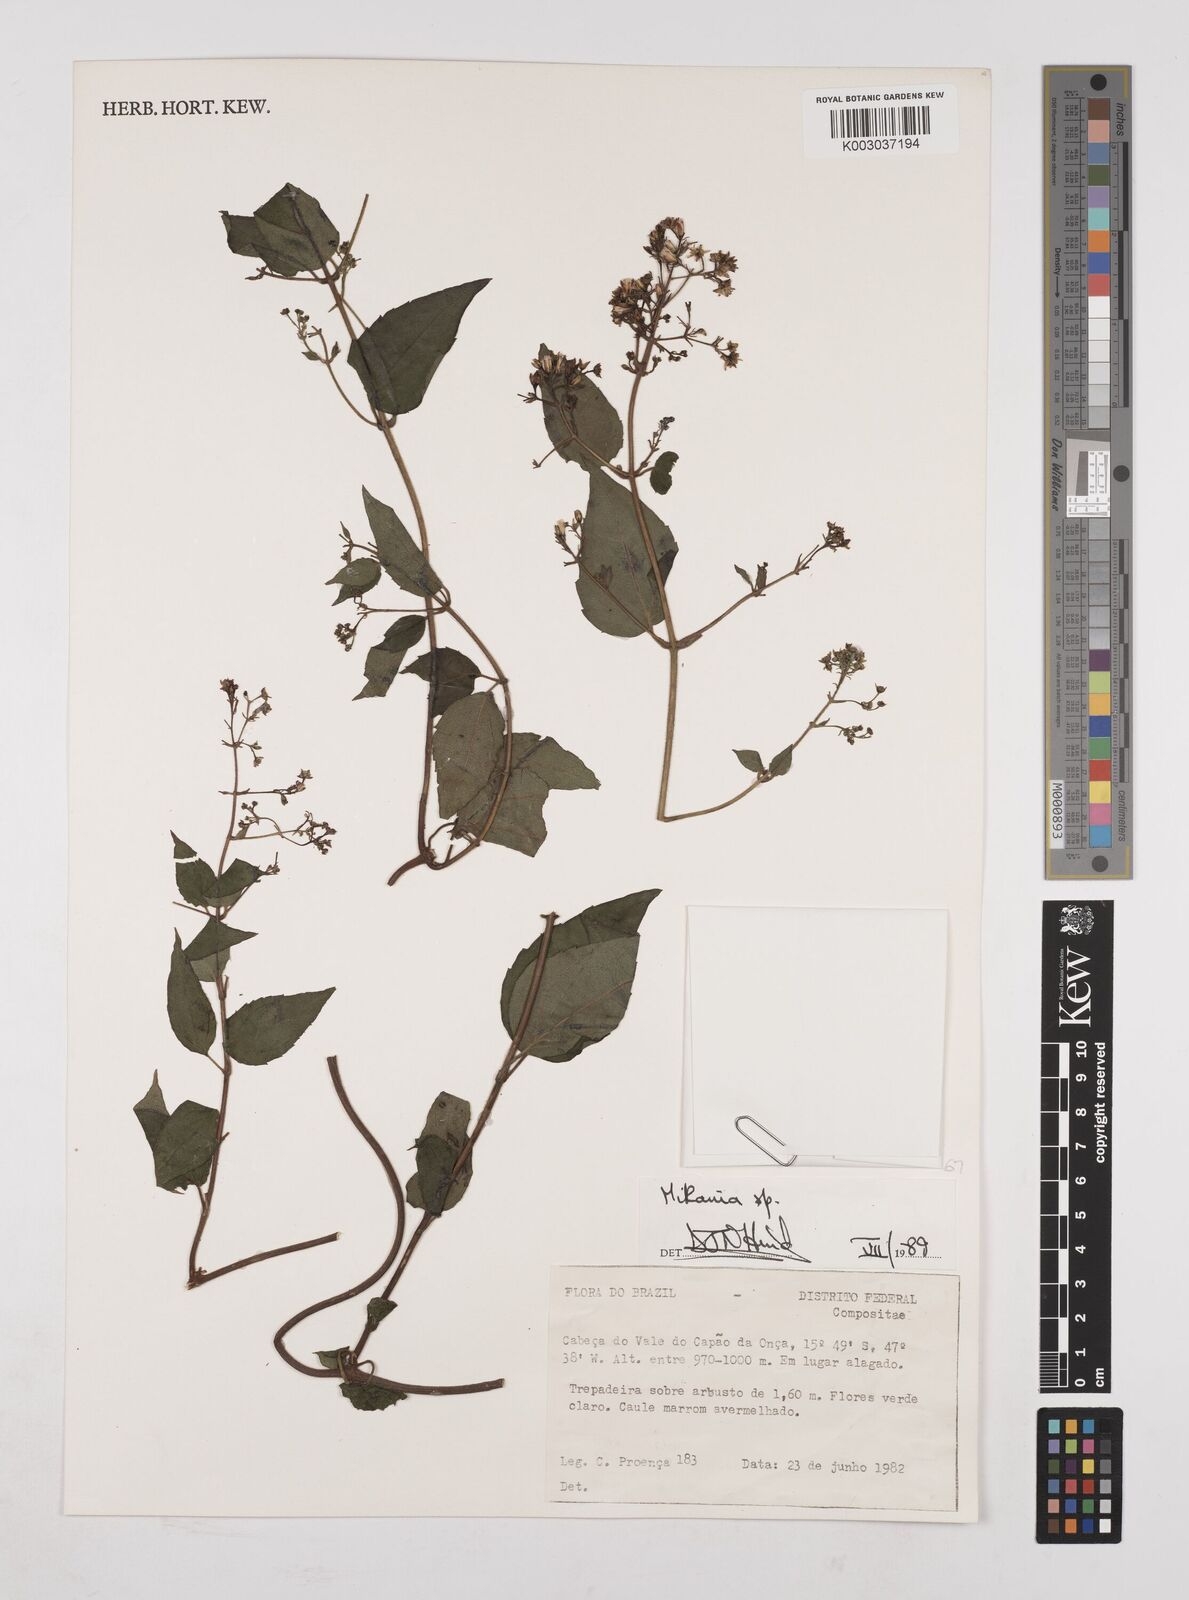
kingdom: Plantae
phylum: Tracheophyta
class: Magnoliopsida
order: Asterales
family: Asteraceae
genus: Mikania
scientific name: Mikania
